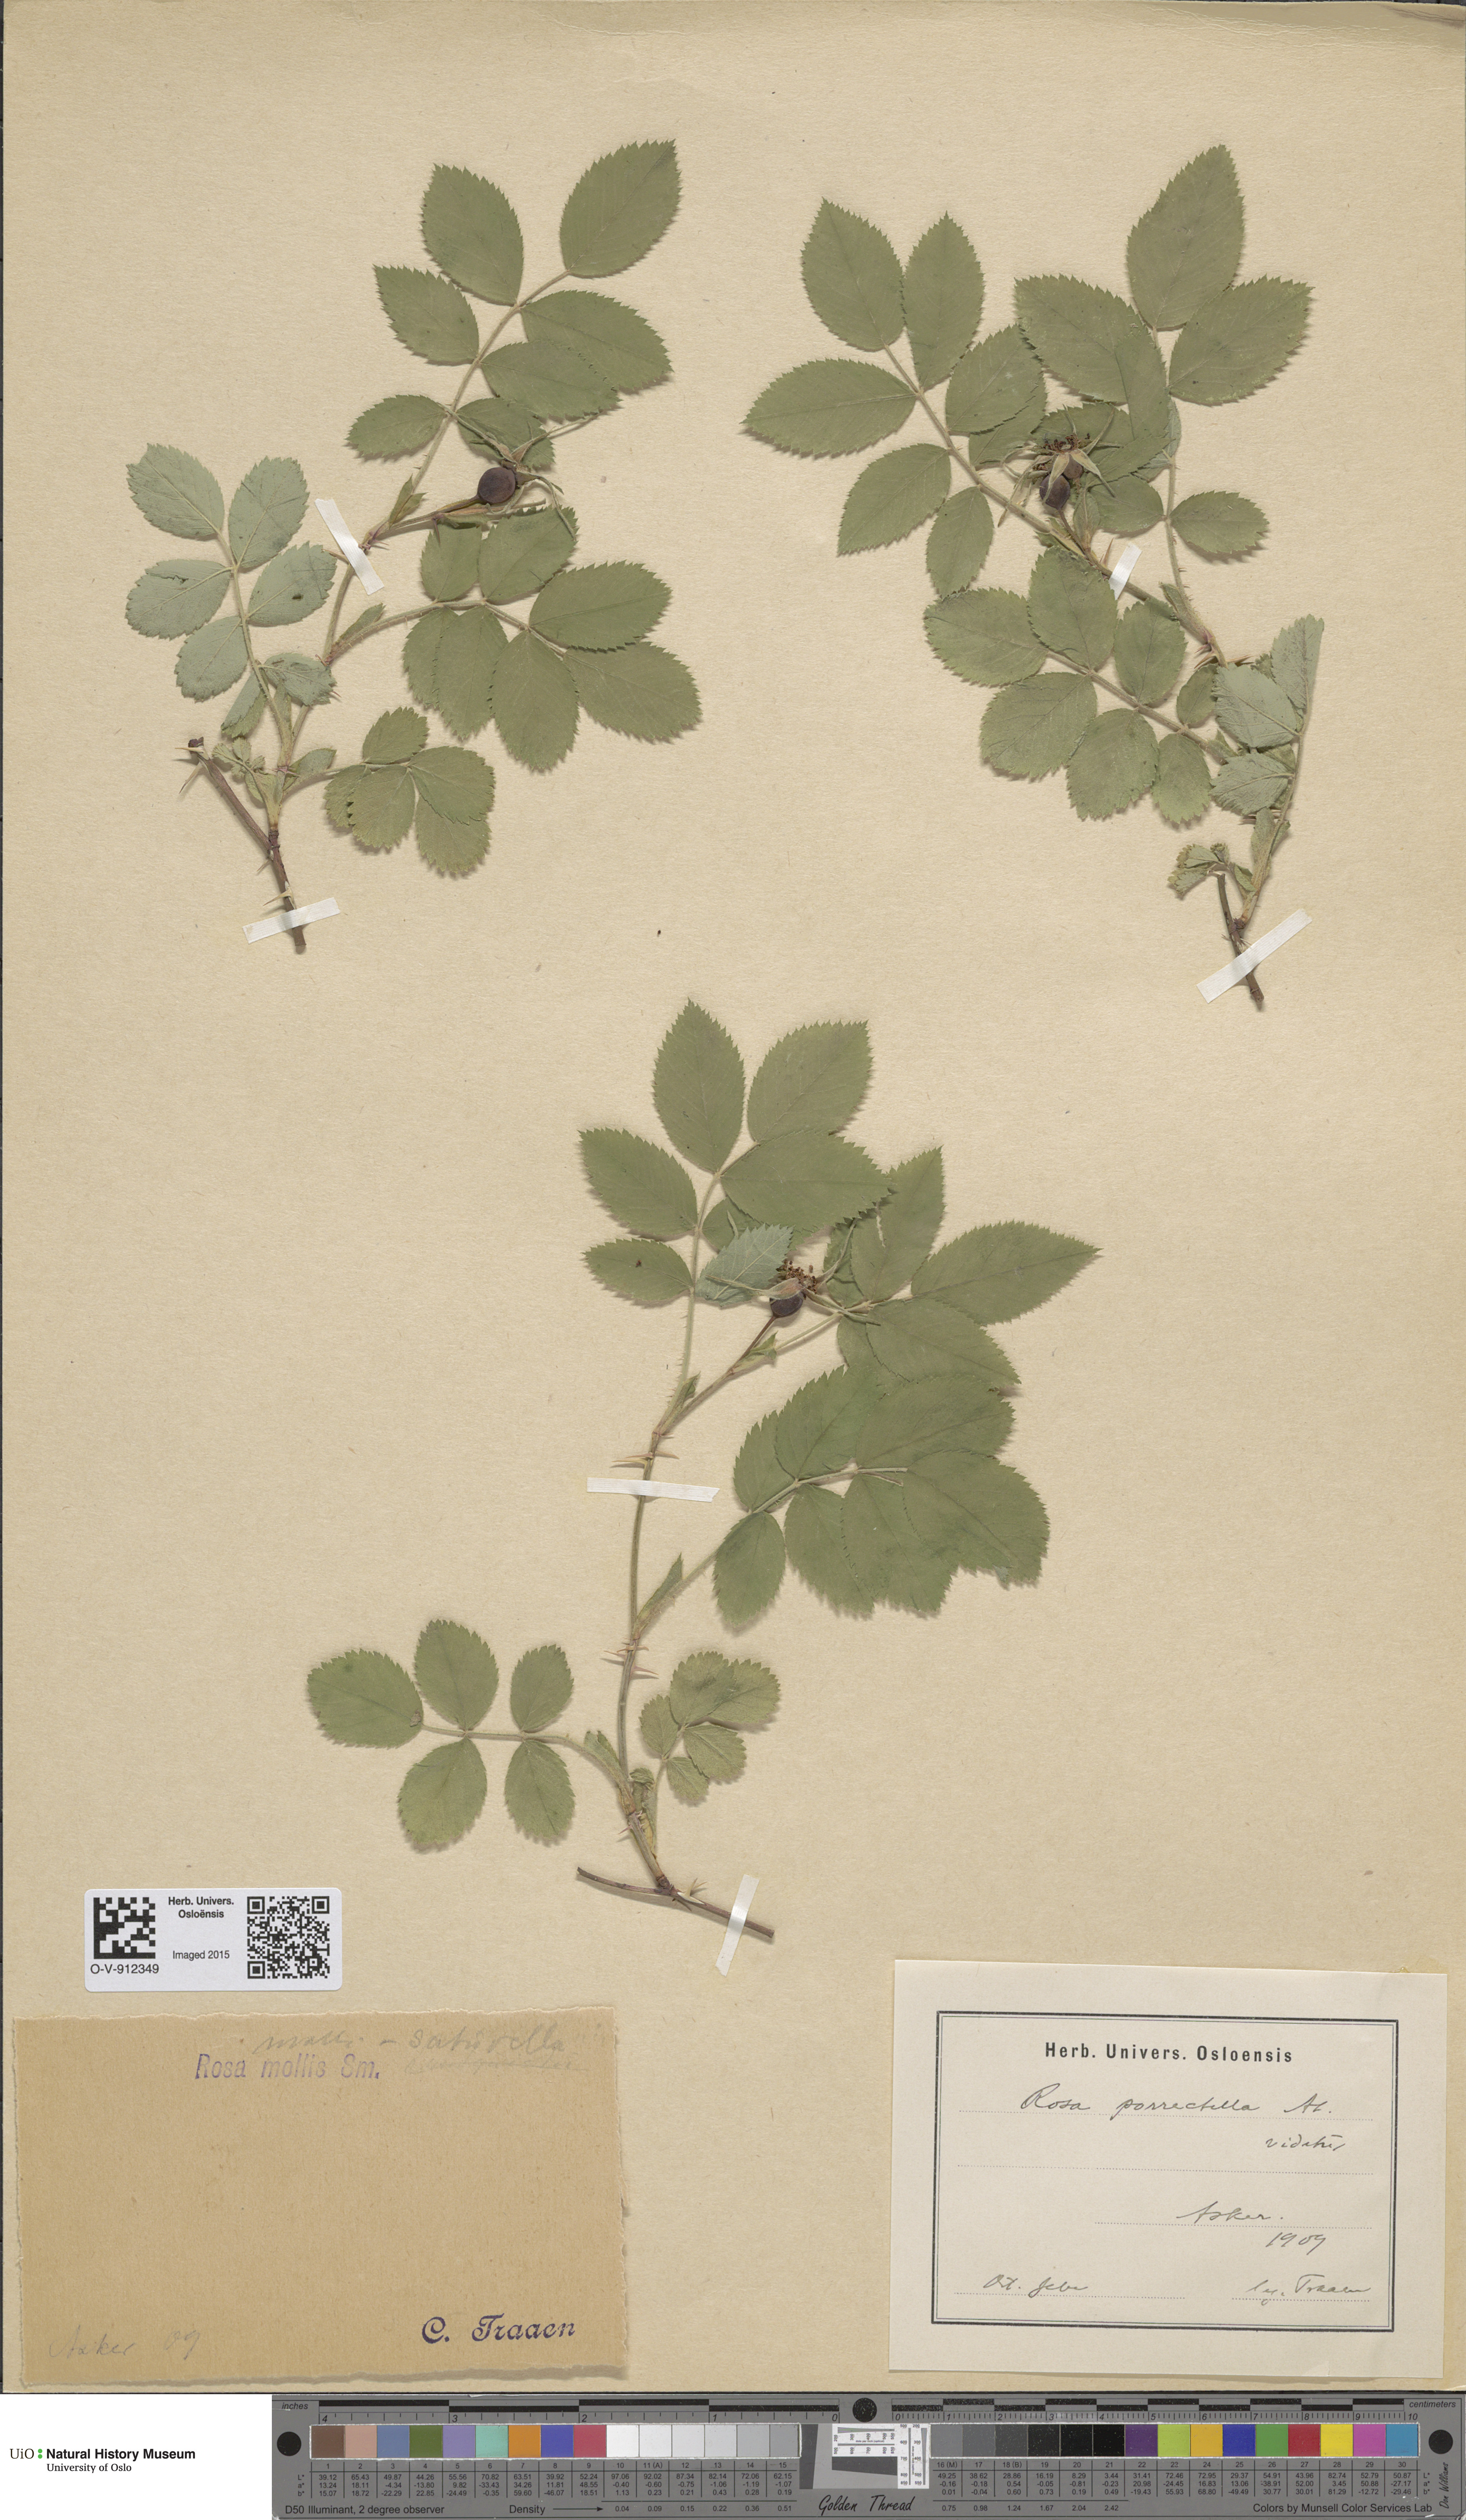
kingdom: Plantae
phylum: Tracheophyta
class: Magnoliopsida
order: Rosales
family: Rosaceae
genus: Rosa
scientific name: Rosa mollis
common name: Rose
